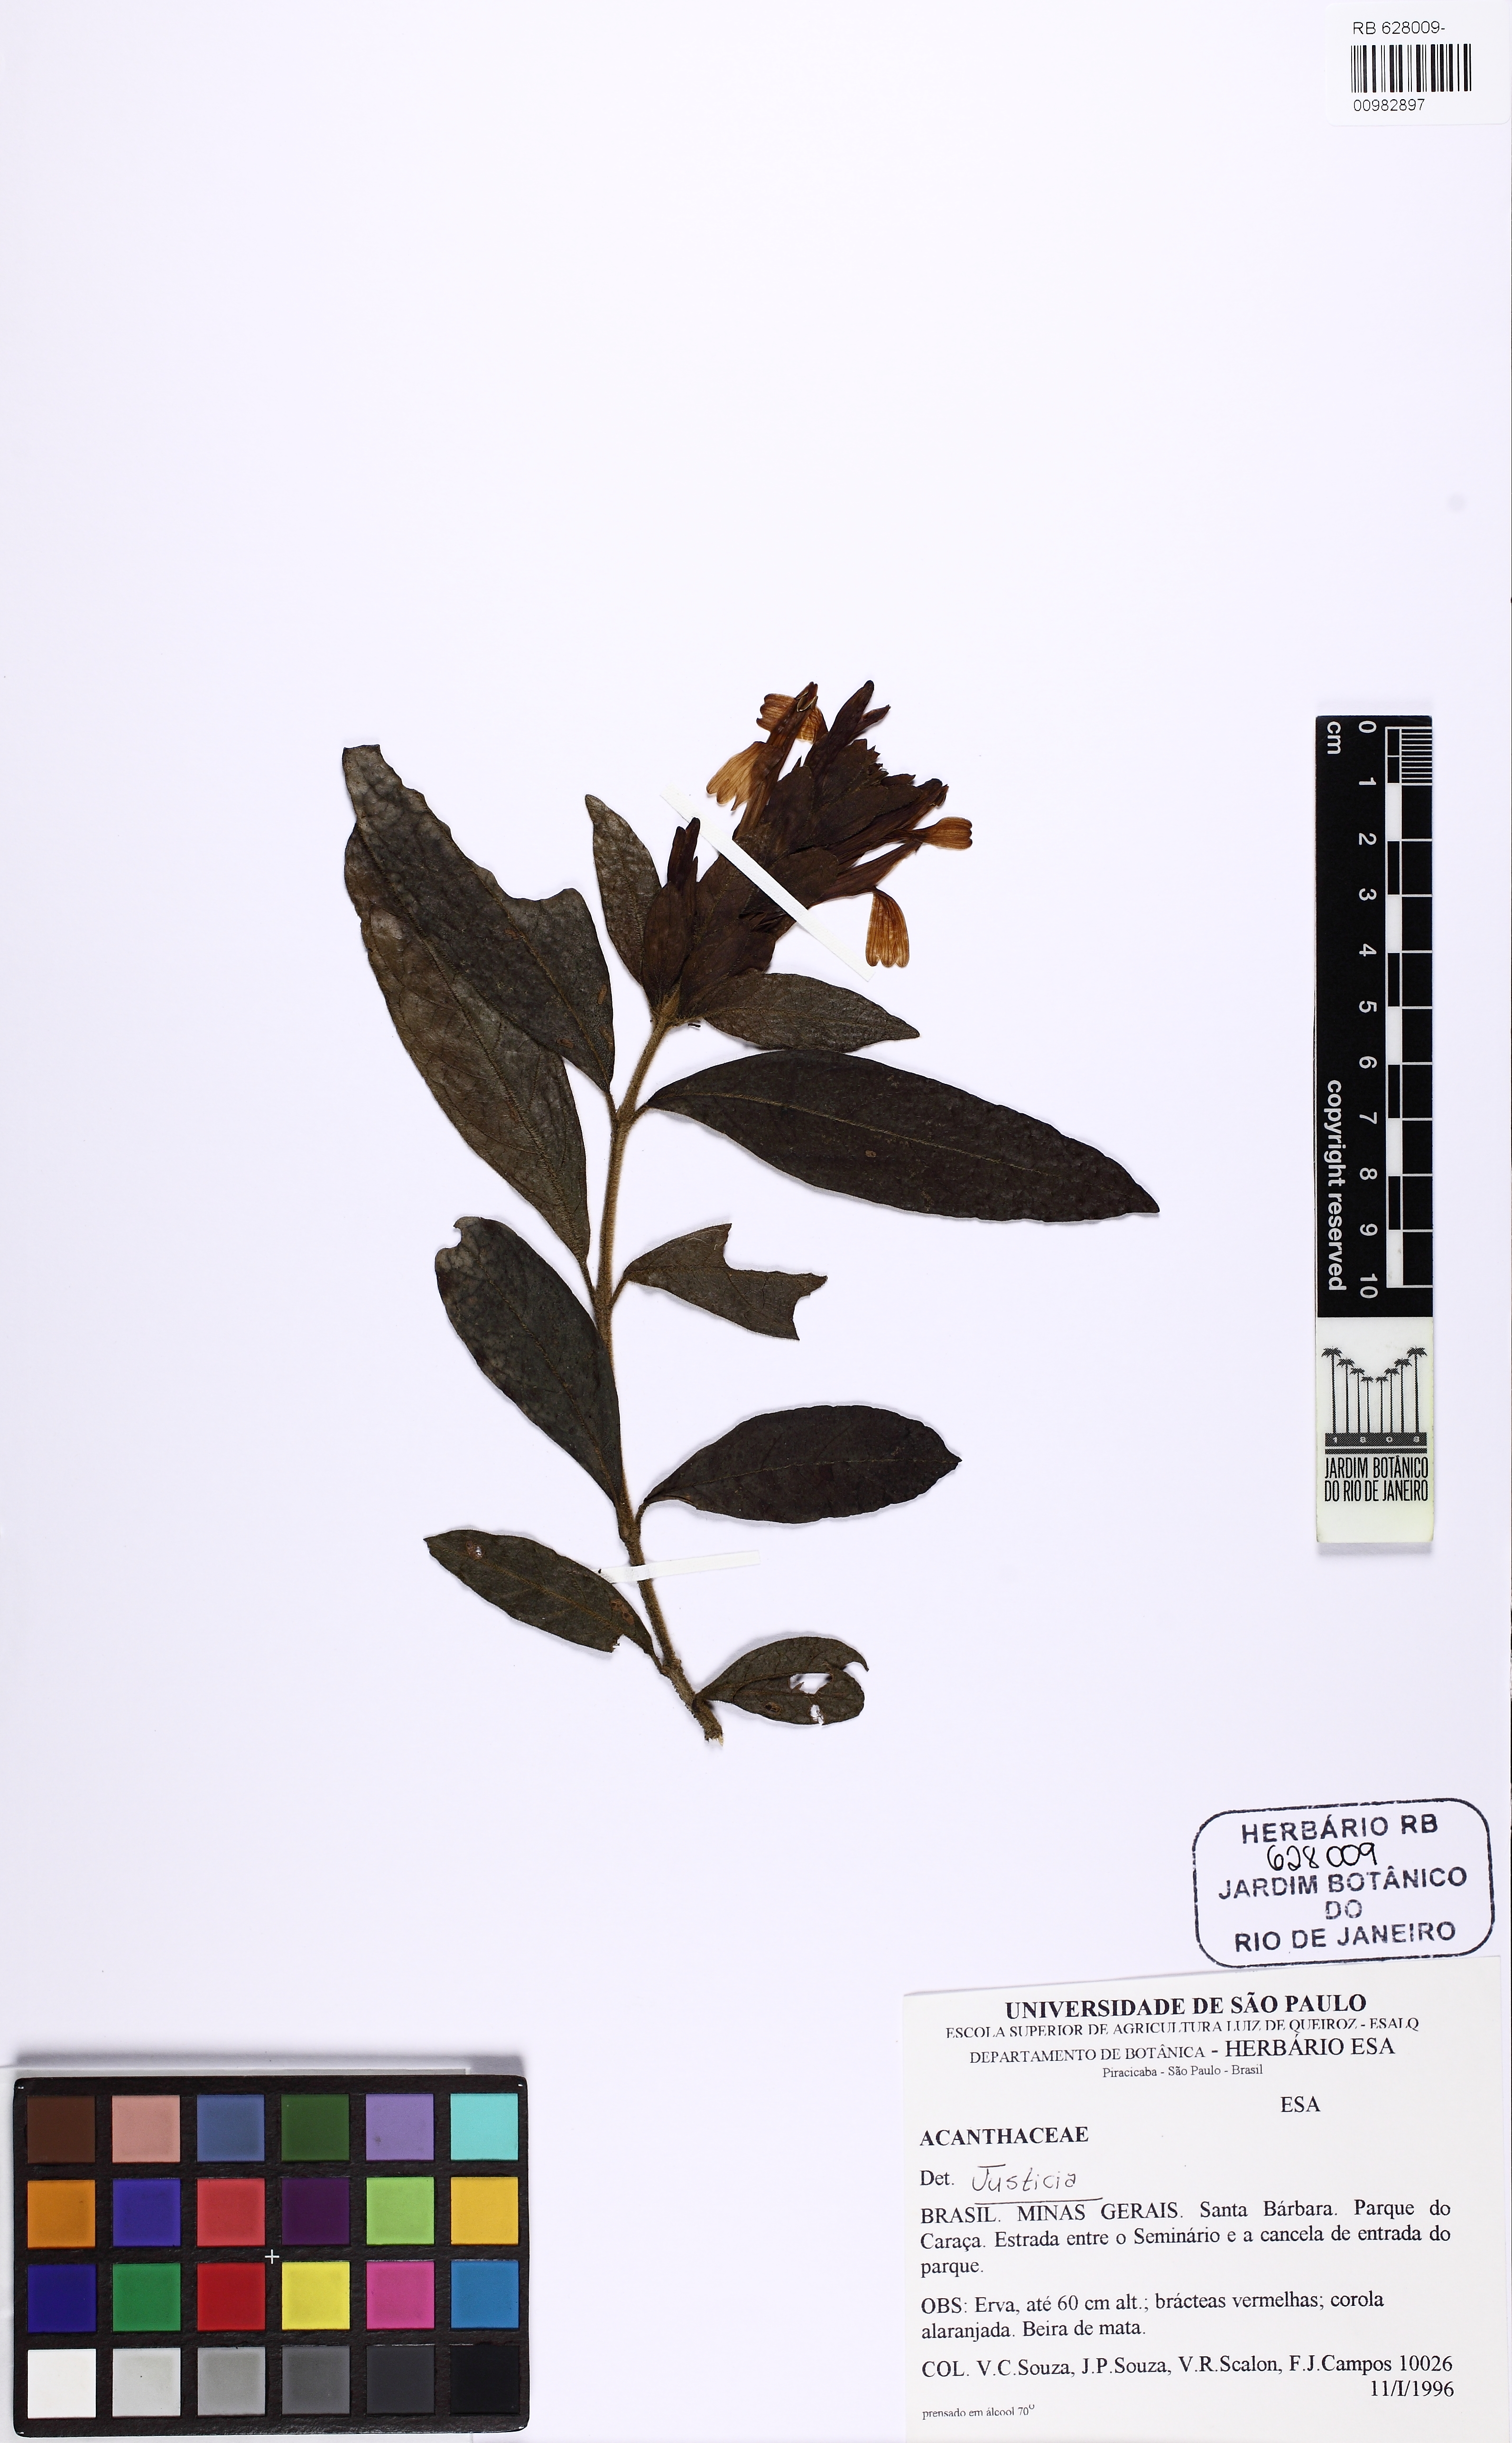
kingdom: Plantae
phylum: Tracheophyta
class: Magnoliopsida
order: Lamiales
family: Acanthaceae
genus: Justicia
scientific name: Justicia
